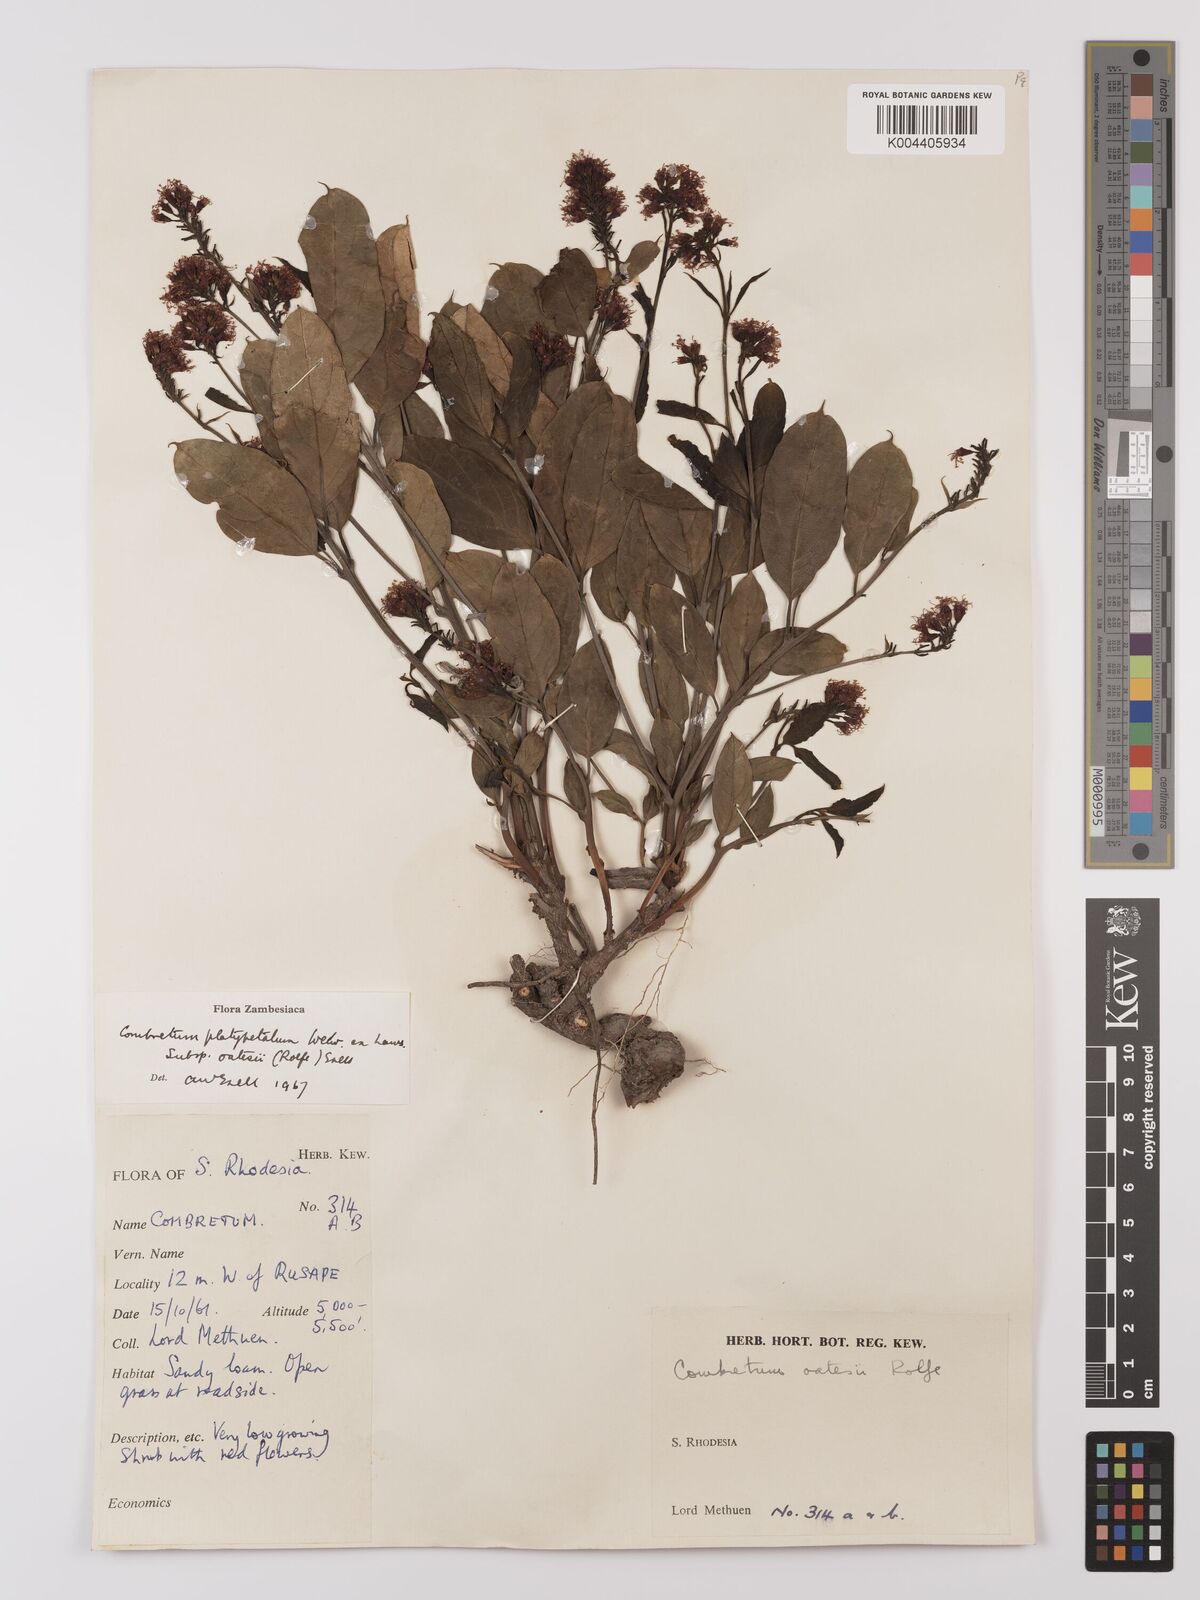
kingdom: Plantae
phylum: Tracheophyta
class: Magnoliopsida
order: Myrtales
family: Combretaceae
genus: Combretum
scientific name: Combretum oatesii
